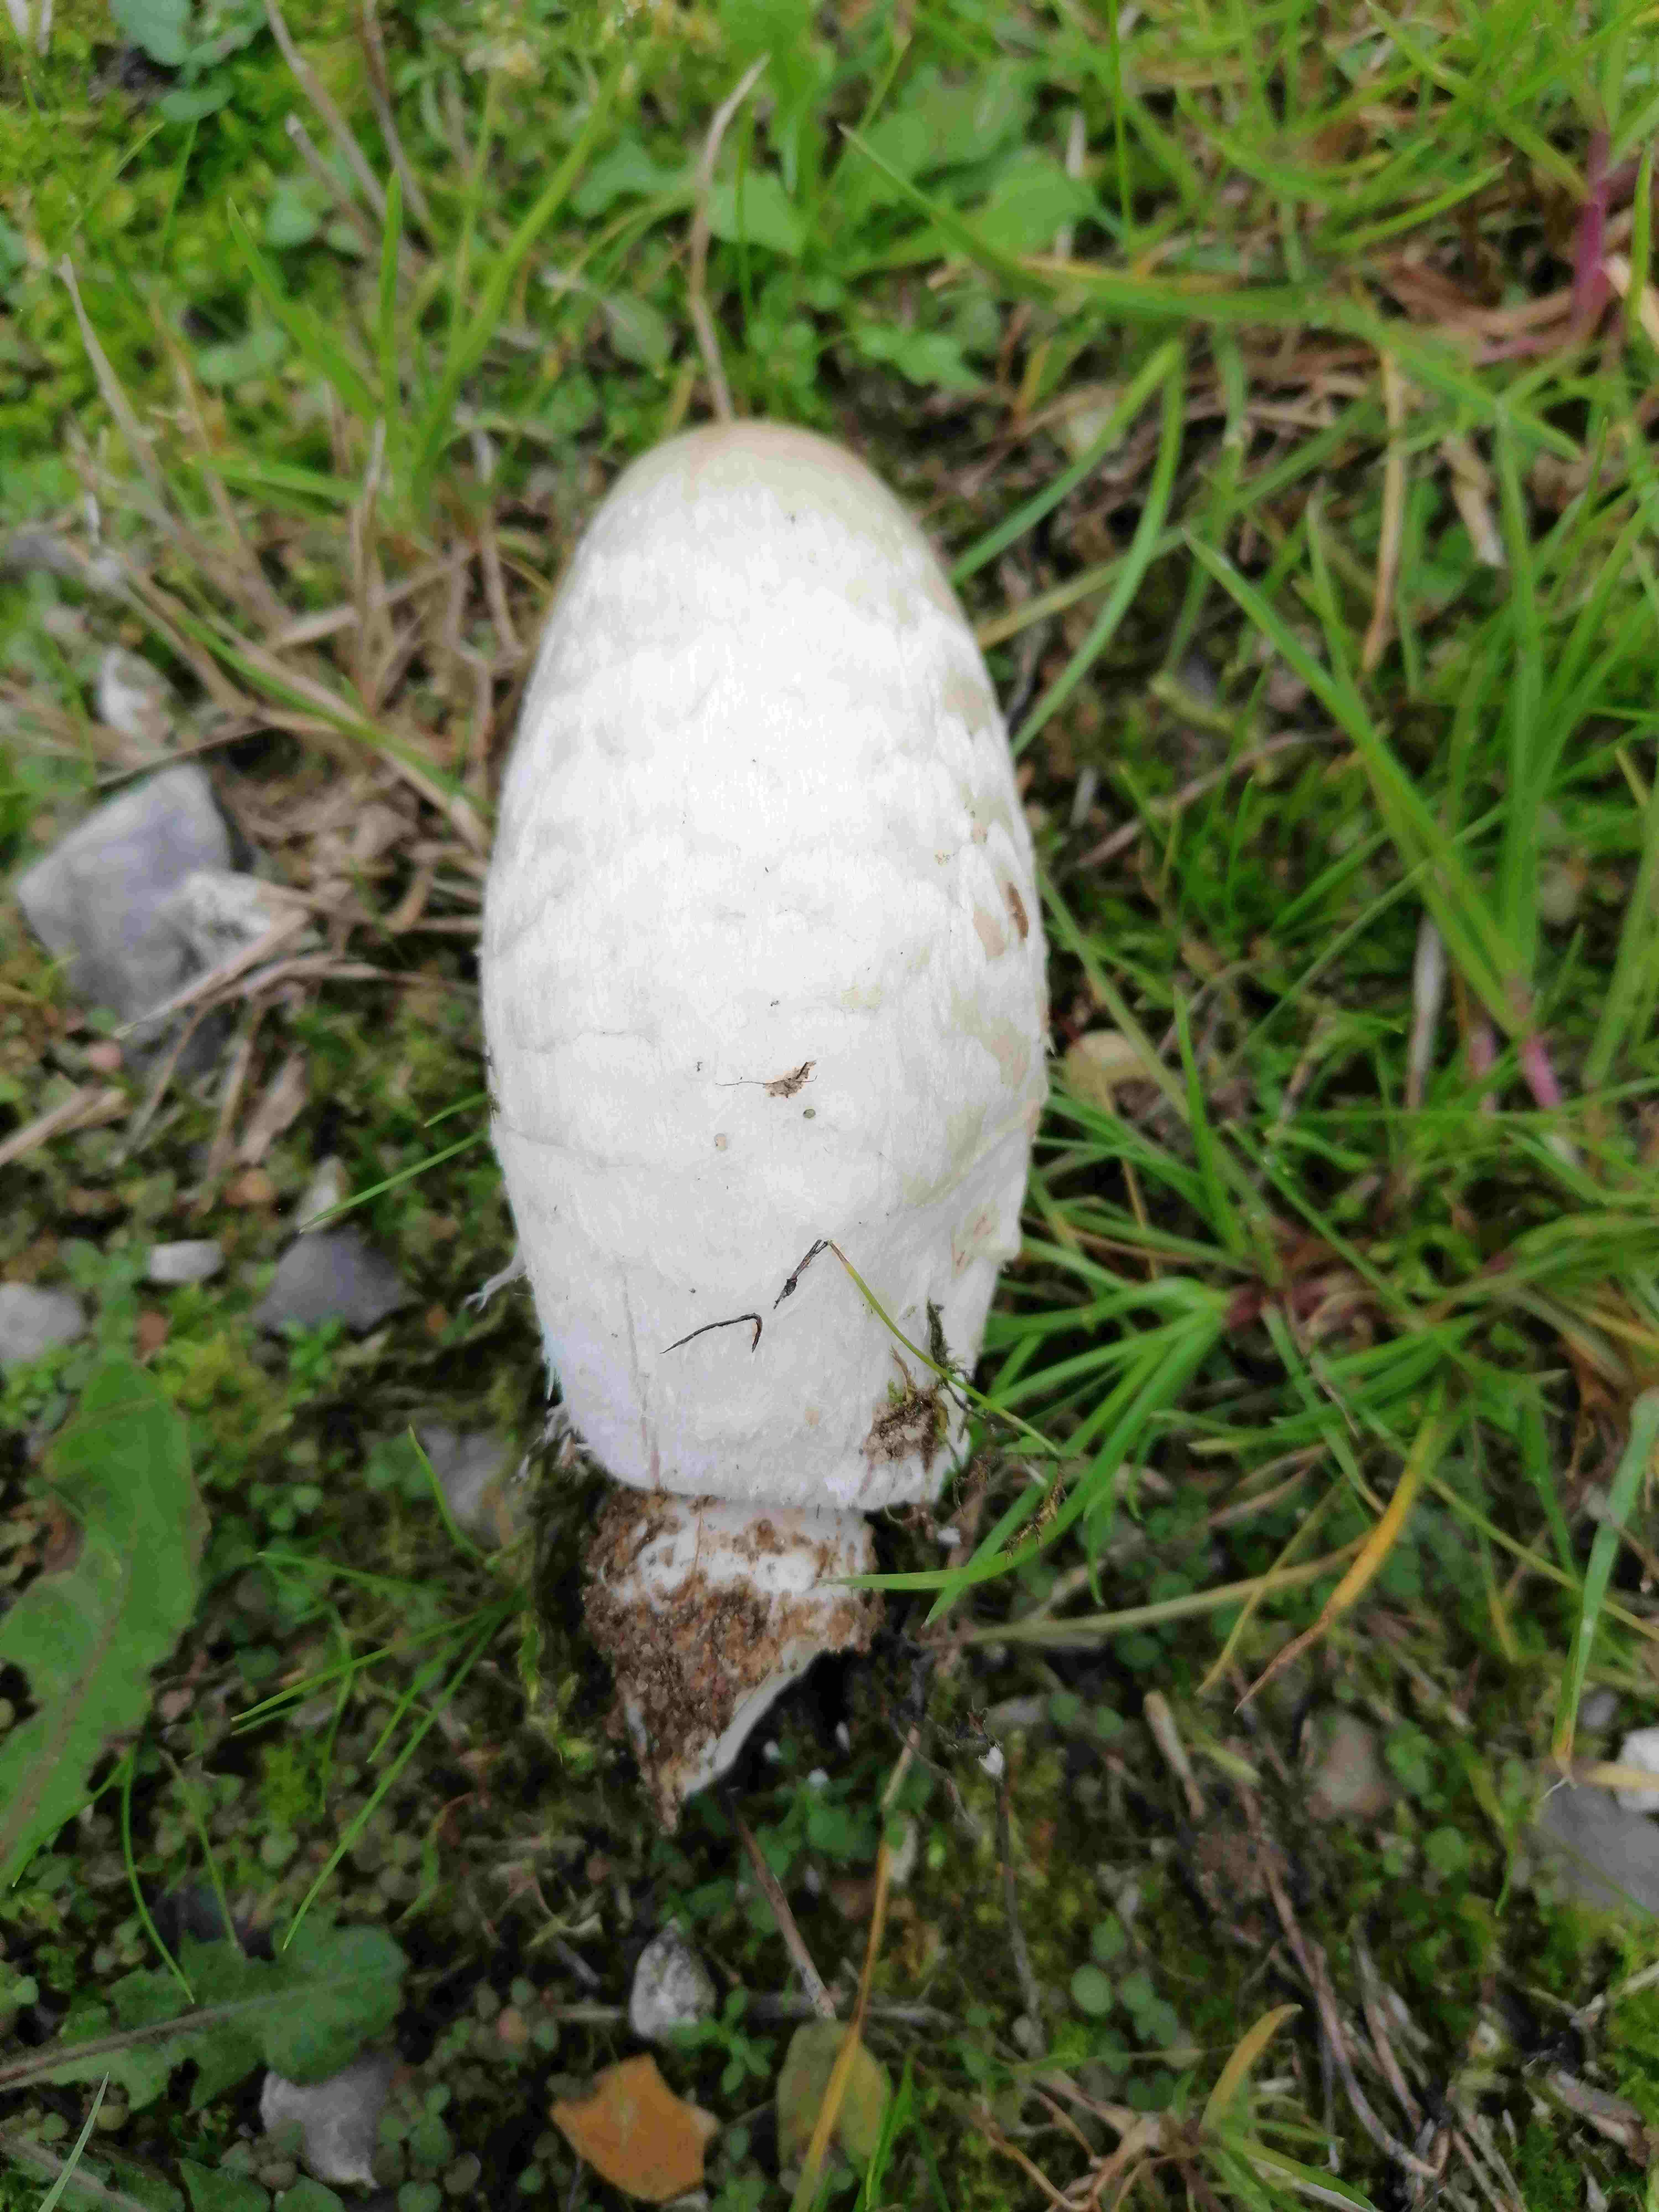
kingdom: Fungi
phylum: Basidiomycota
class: Agaricomycetes
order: Agaricales
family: Agaricaceae
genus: Coprinus
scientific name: Coprinus comatus
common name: stor parykhat
